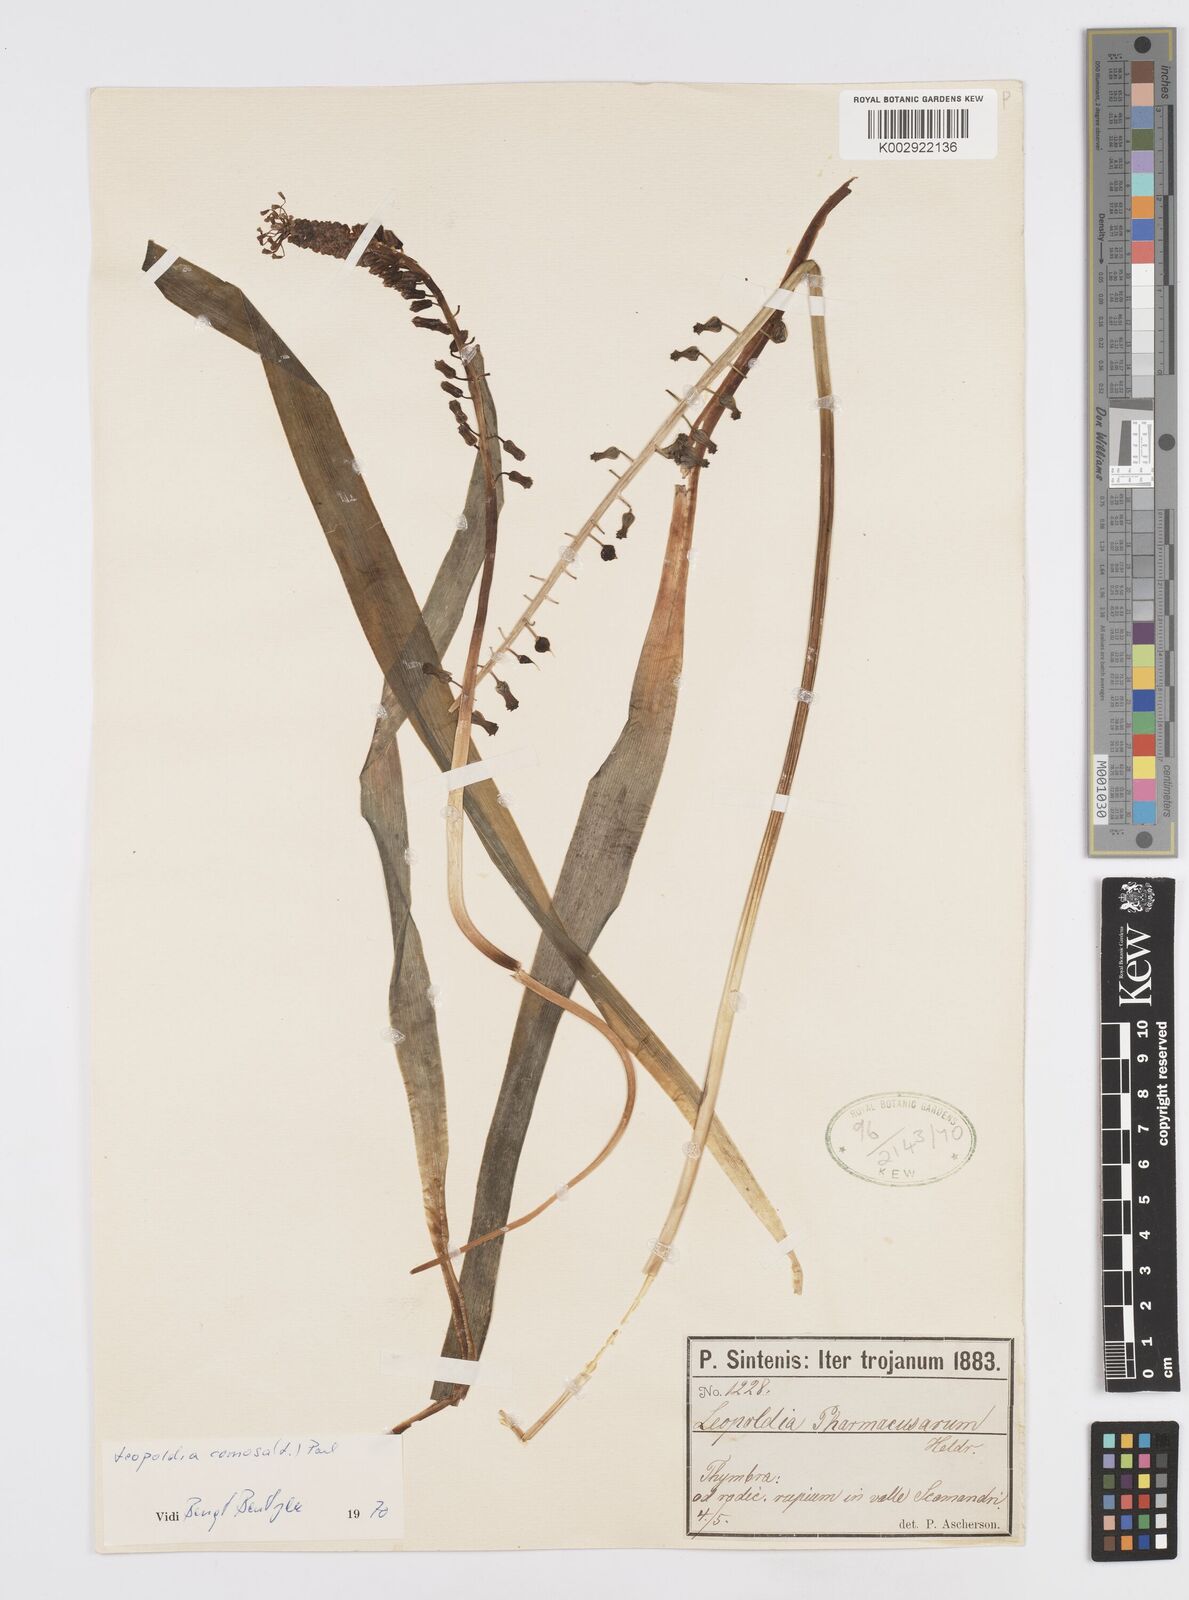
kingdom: Plantae
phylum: Tracheophyta
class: Liliopsida
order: Asparagales
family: Asparagaceae
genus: Muscari
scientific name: Muscari comosum
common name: Tassel hyacinth
